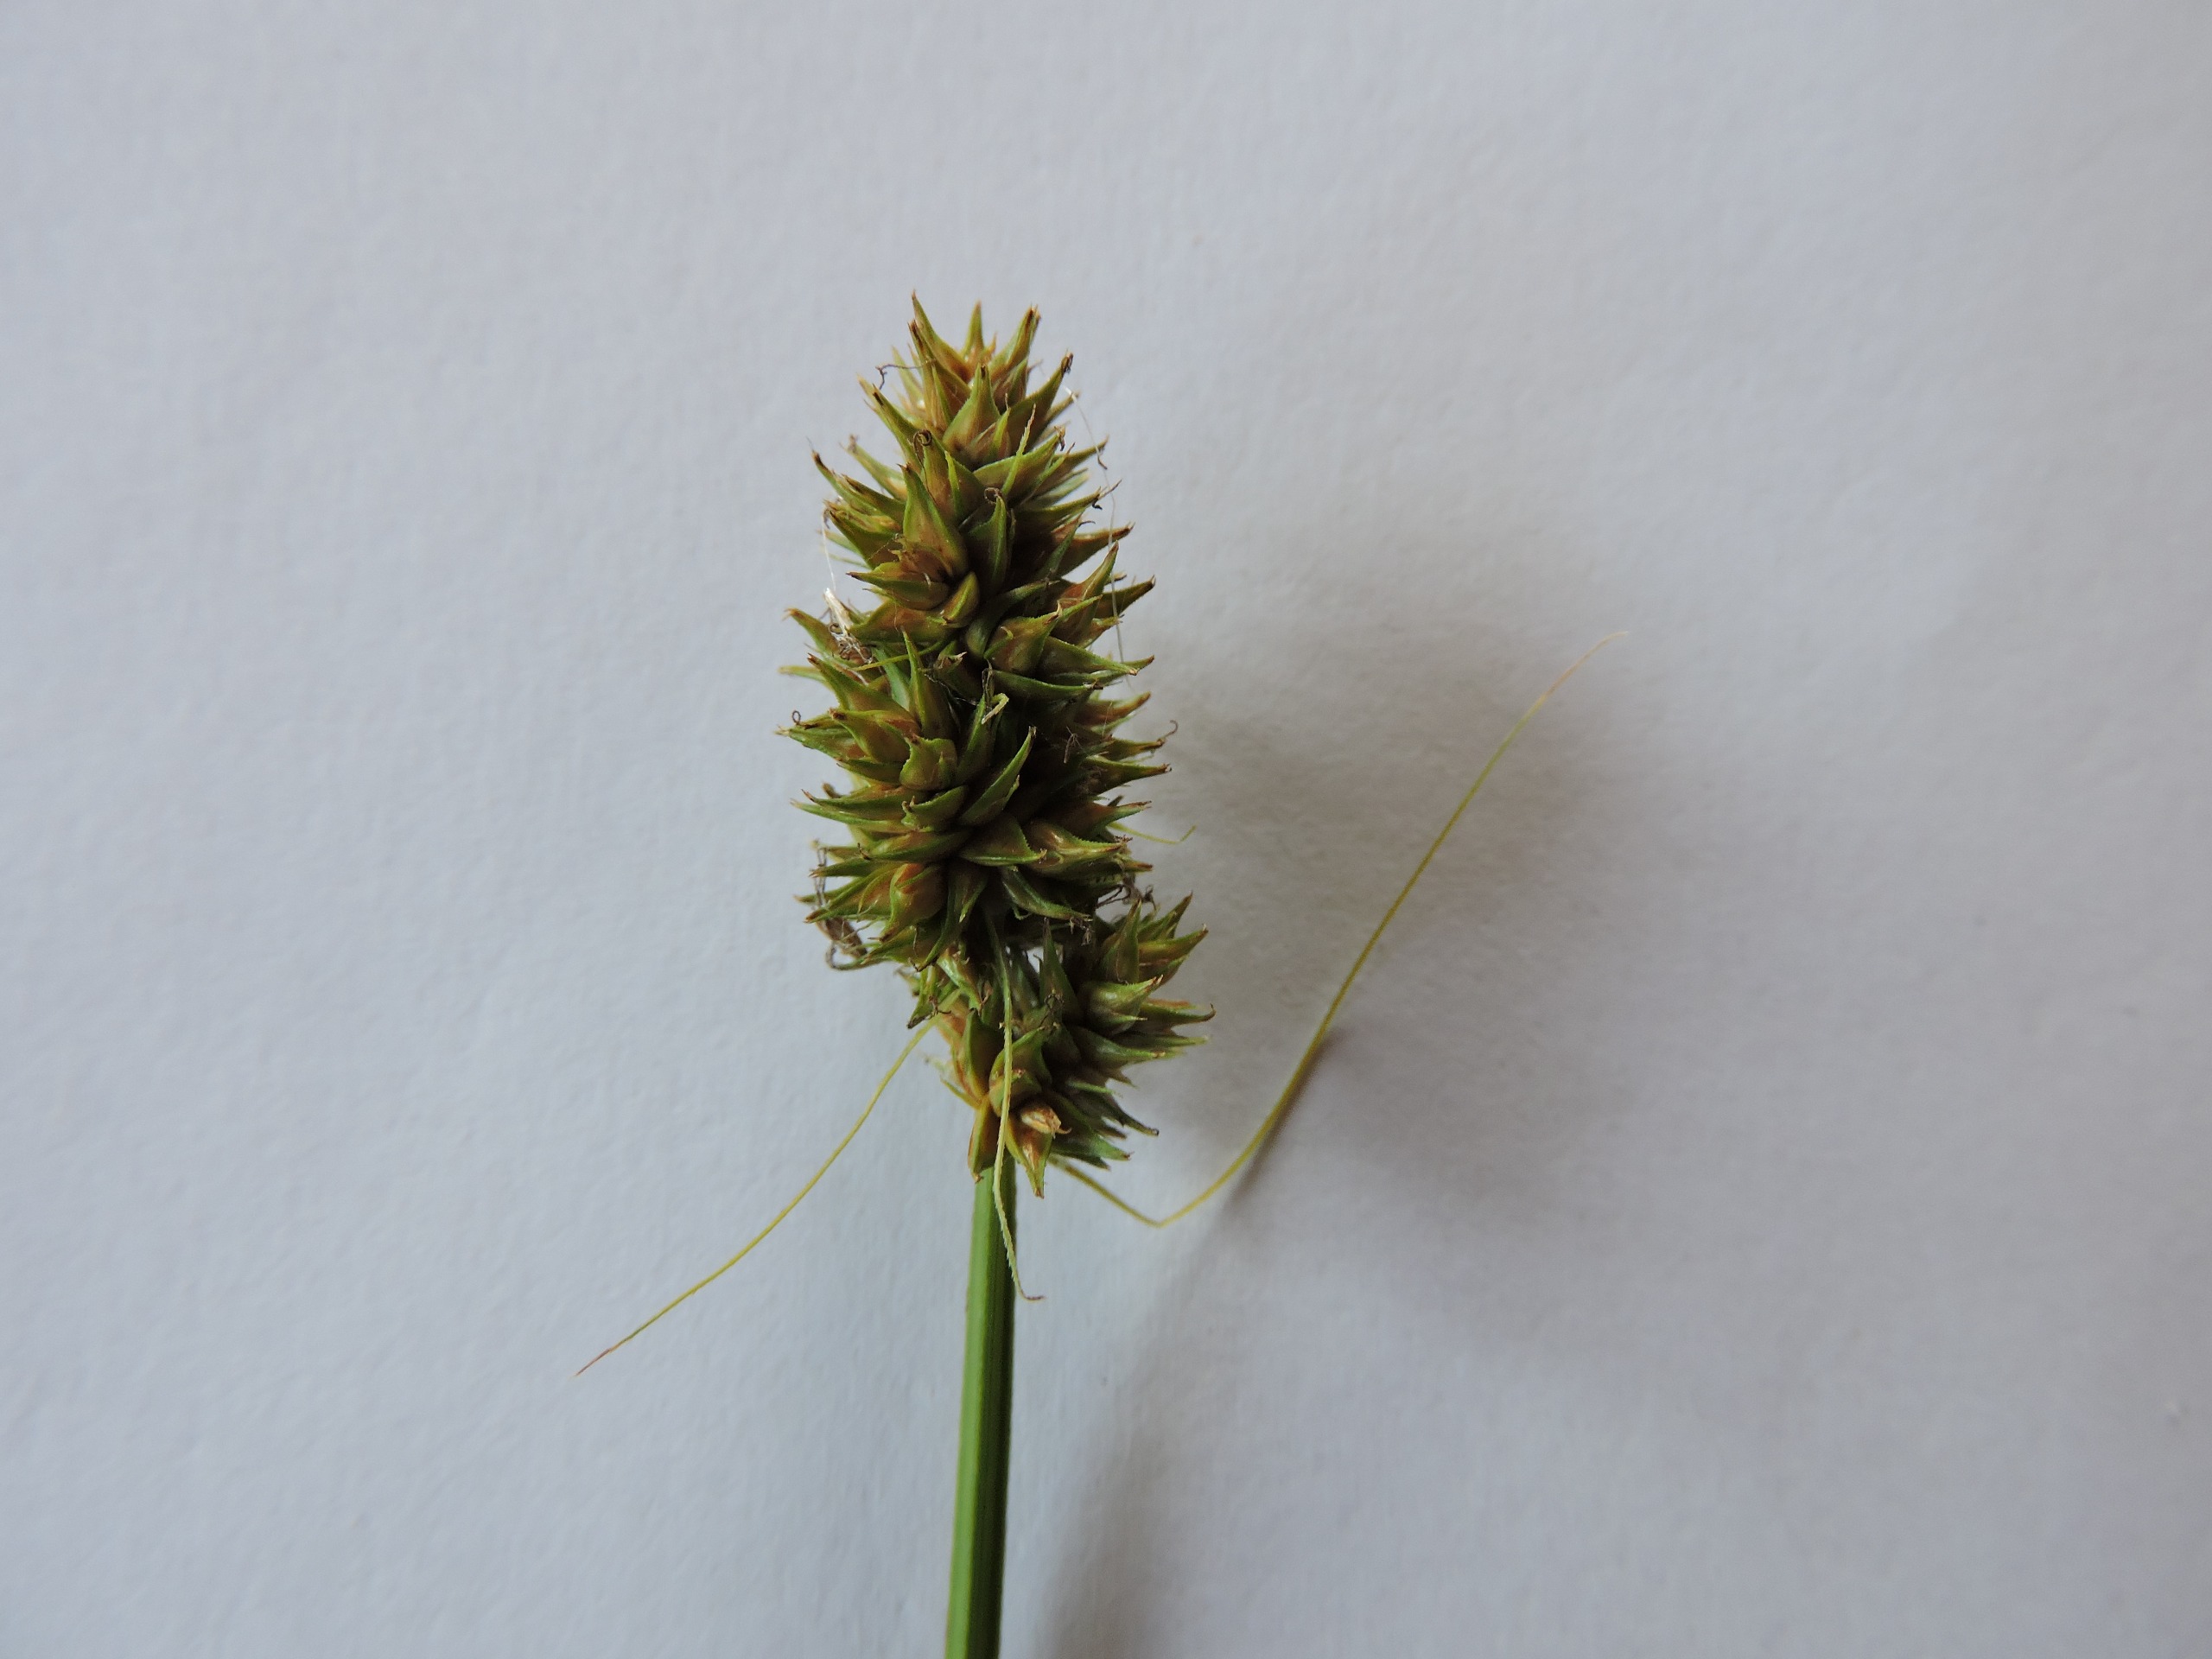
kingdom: Plantae
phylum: Tracheophyta
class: Liliopsida
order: Poales
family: Cyperaceae
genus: Carex
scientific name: Carex otrubae
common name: Sylt-star
